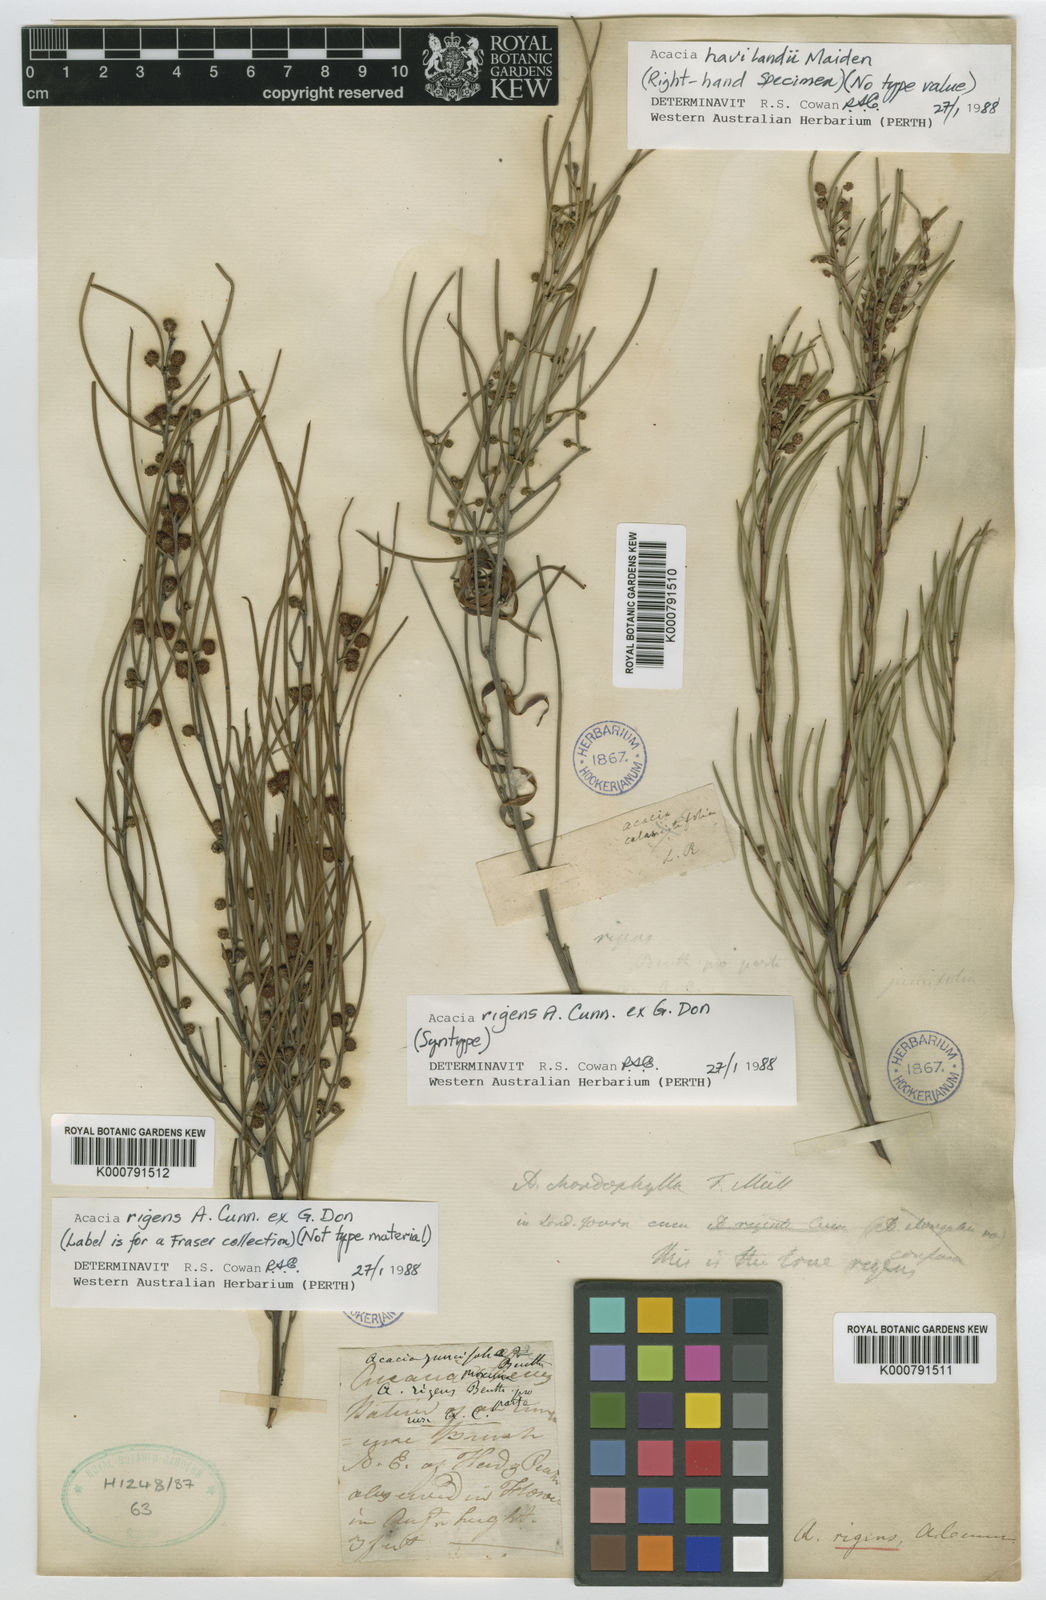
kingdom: Plantae
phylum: Tracheophyta
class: Magnoliopsida
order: Fabales
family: Fabaceae
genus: Acacia
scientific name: Acacia rigens
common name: Nealie
